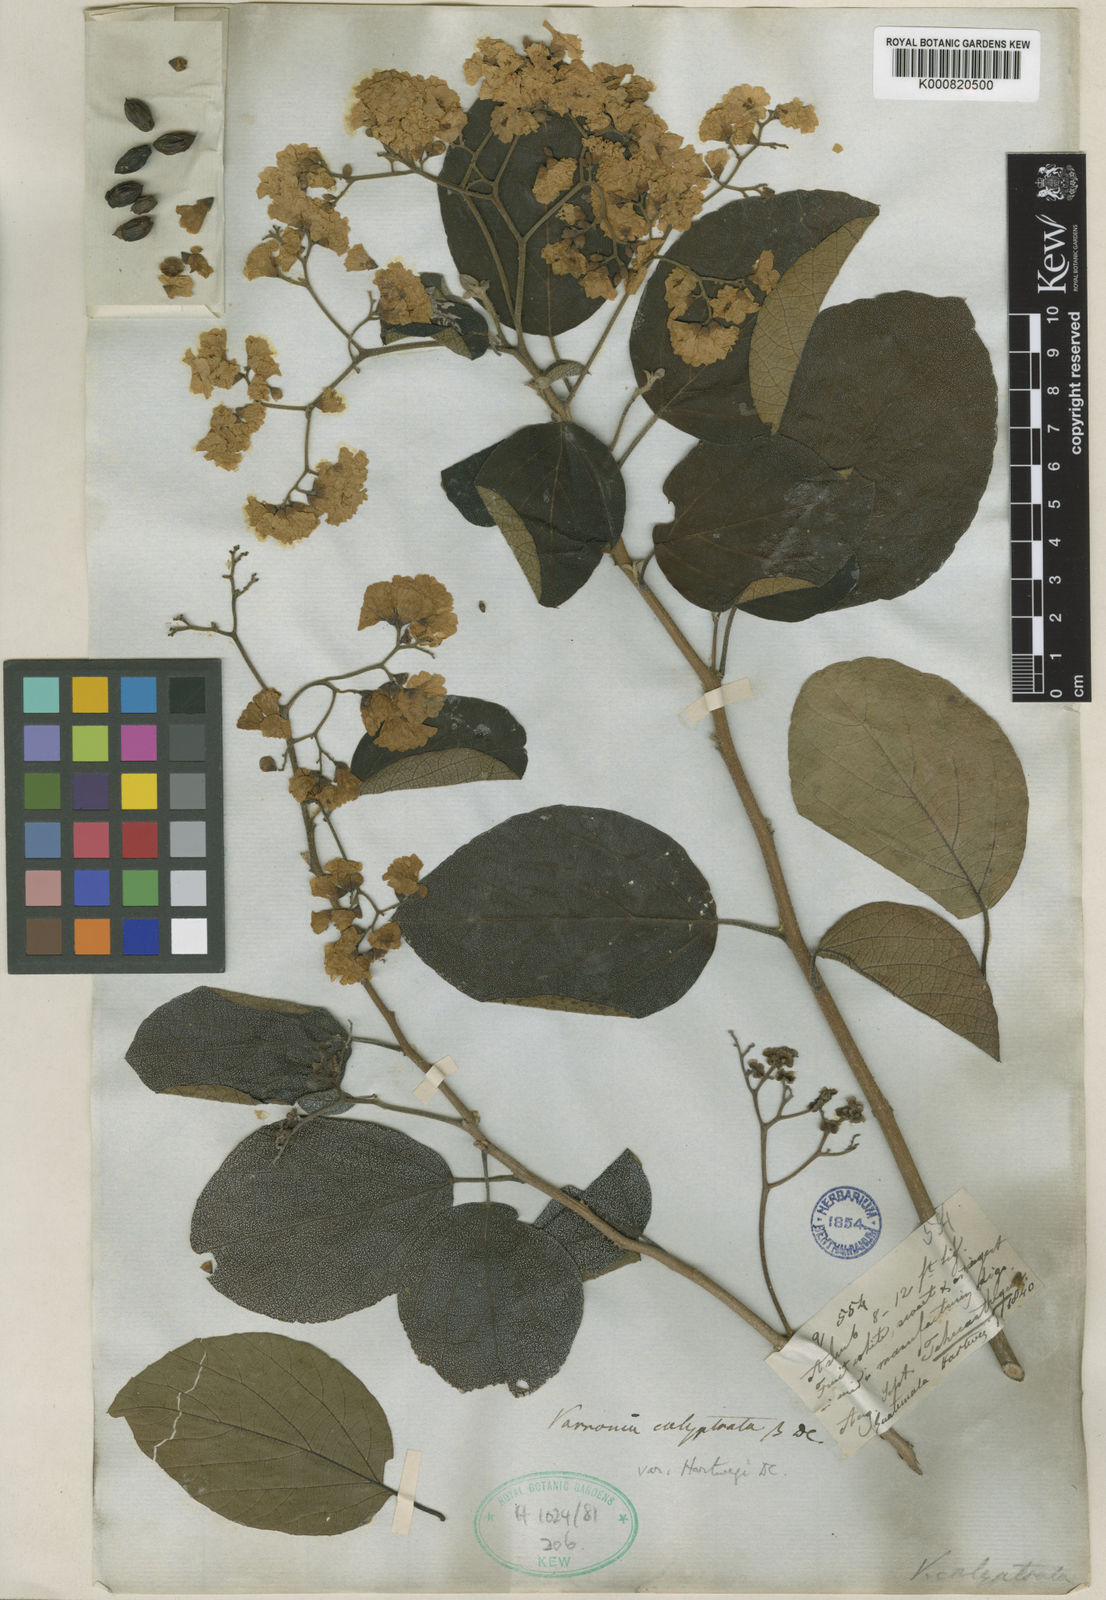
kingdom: Plantae
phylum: Tracheophyta
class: Magnoliopsida
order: Boraginales
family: Cordiaceae
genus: Cordia
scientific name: Cordia dentata
